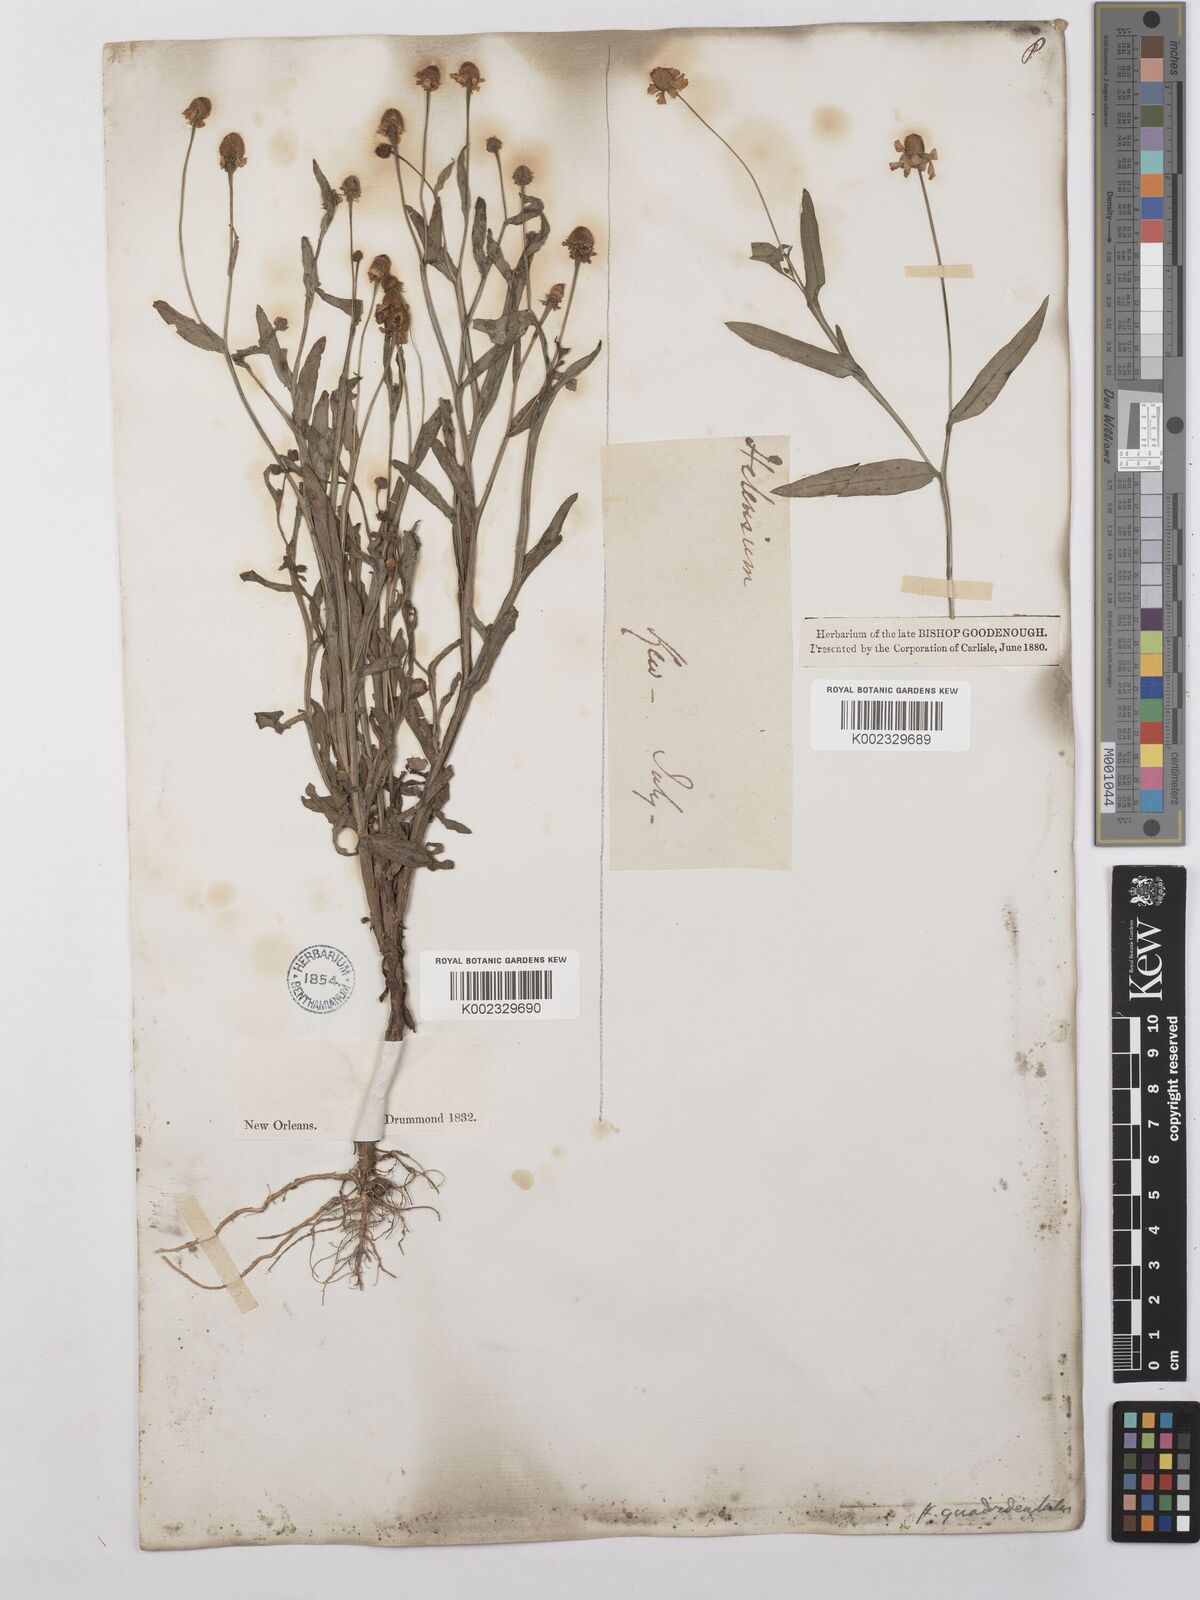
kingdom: Plantae
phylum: Tracheophyta
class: Magnoliopsida
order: Asterales
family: Asteraceae
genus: Helenium
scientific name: Helenium quadridentatum
